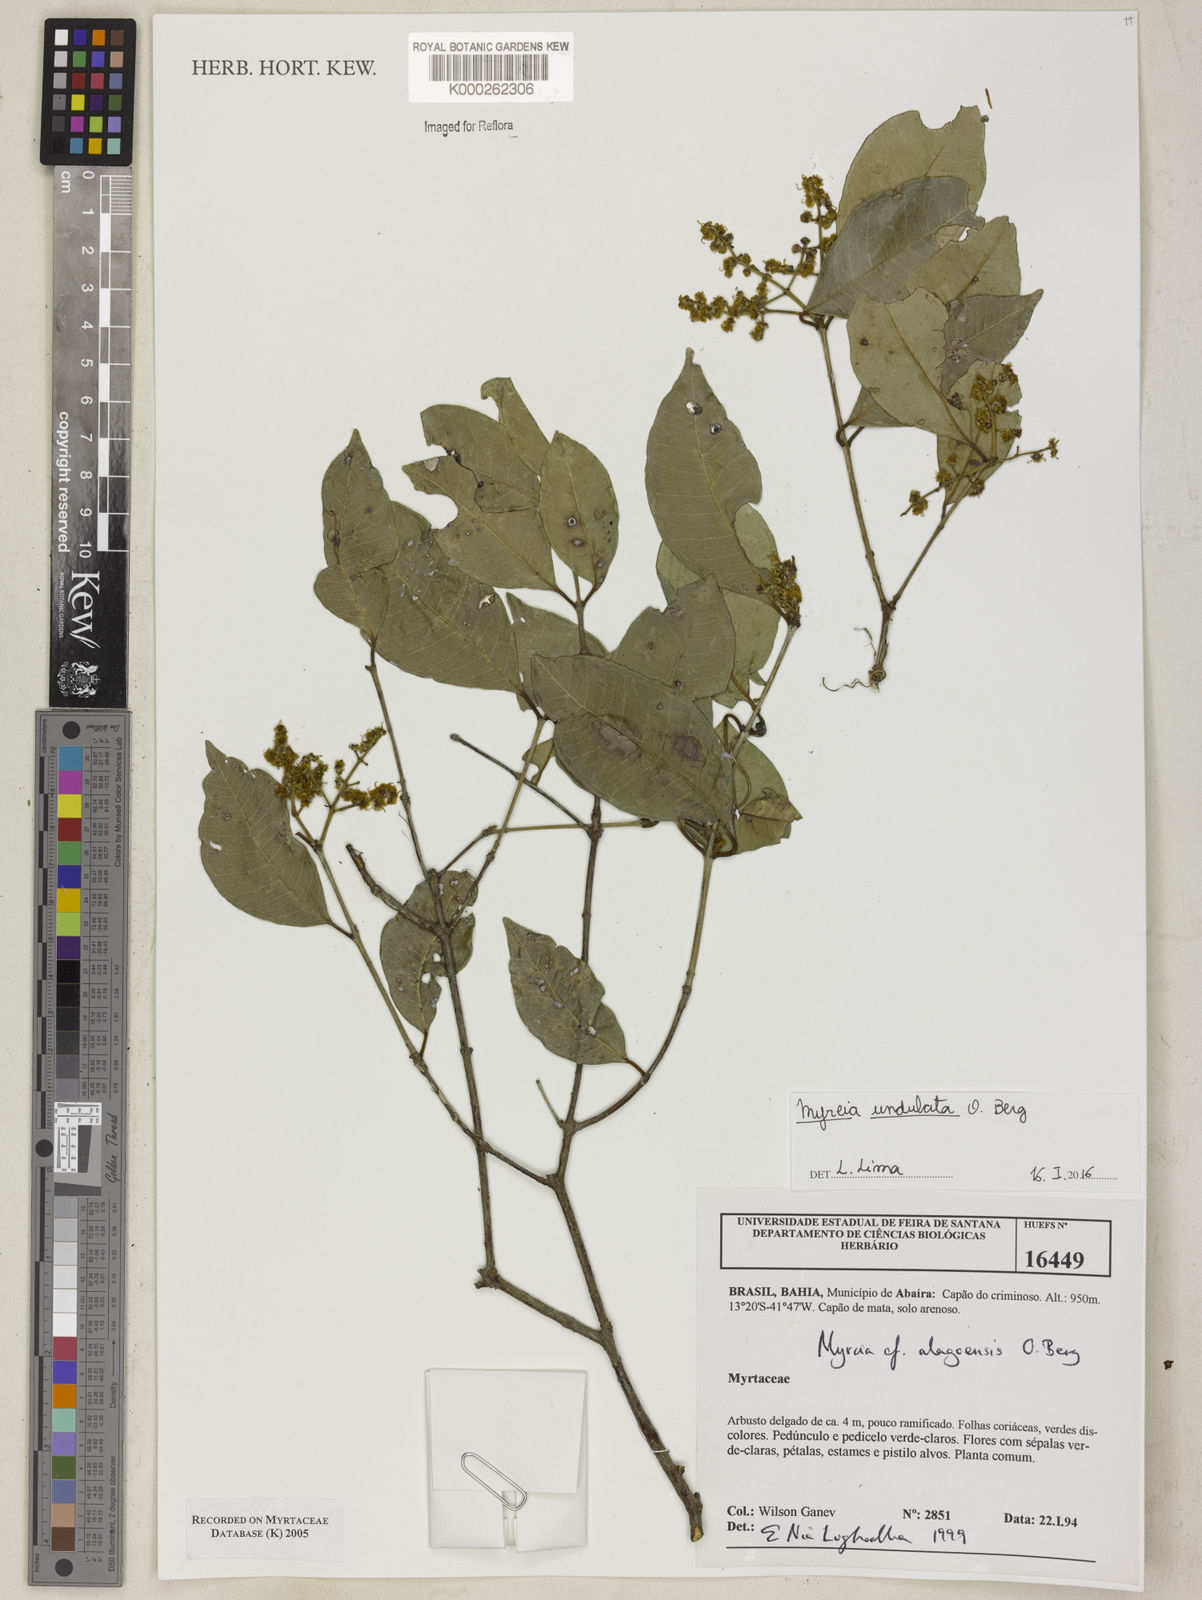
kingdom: Plantae
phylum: Tracheophyta
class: Magnoliopsida
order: Myrtales
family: Myrtaceae
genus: Myrcia
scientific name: Myrcia splendens
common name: Surinam cherry
